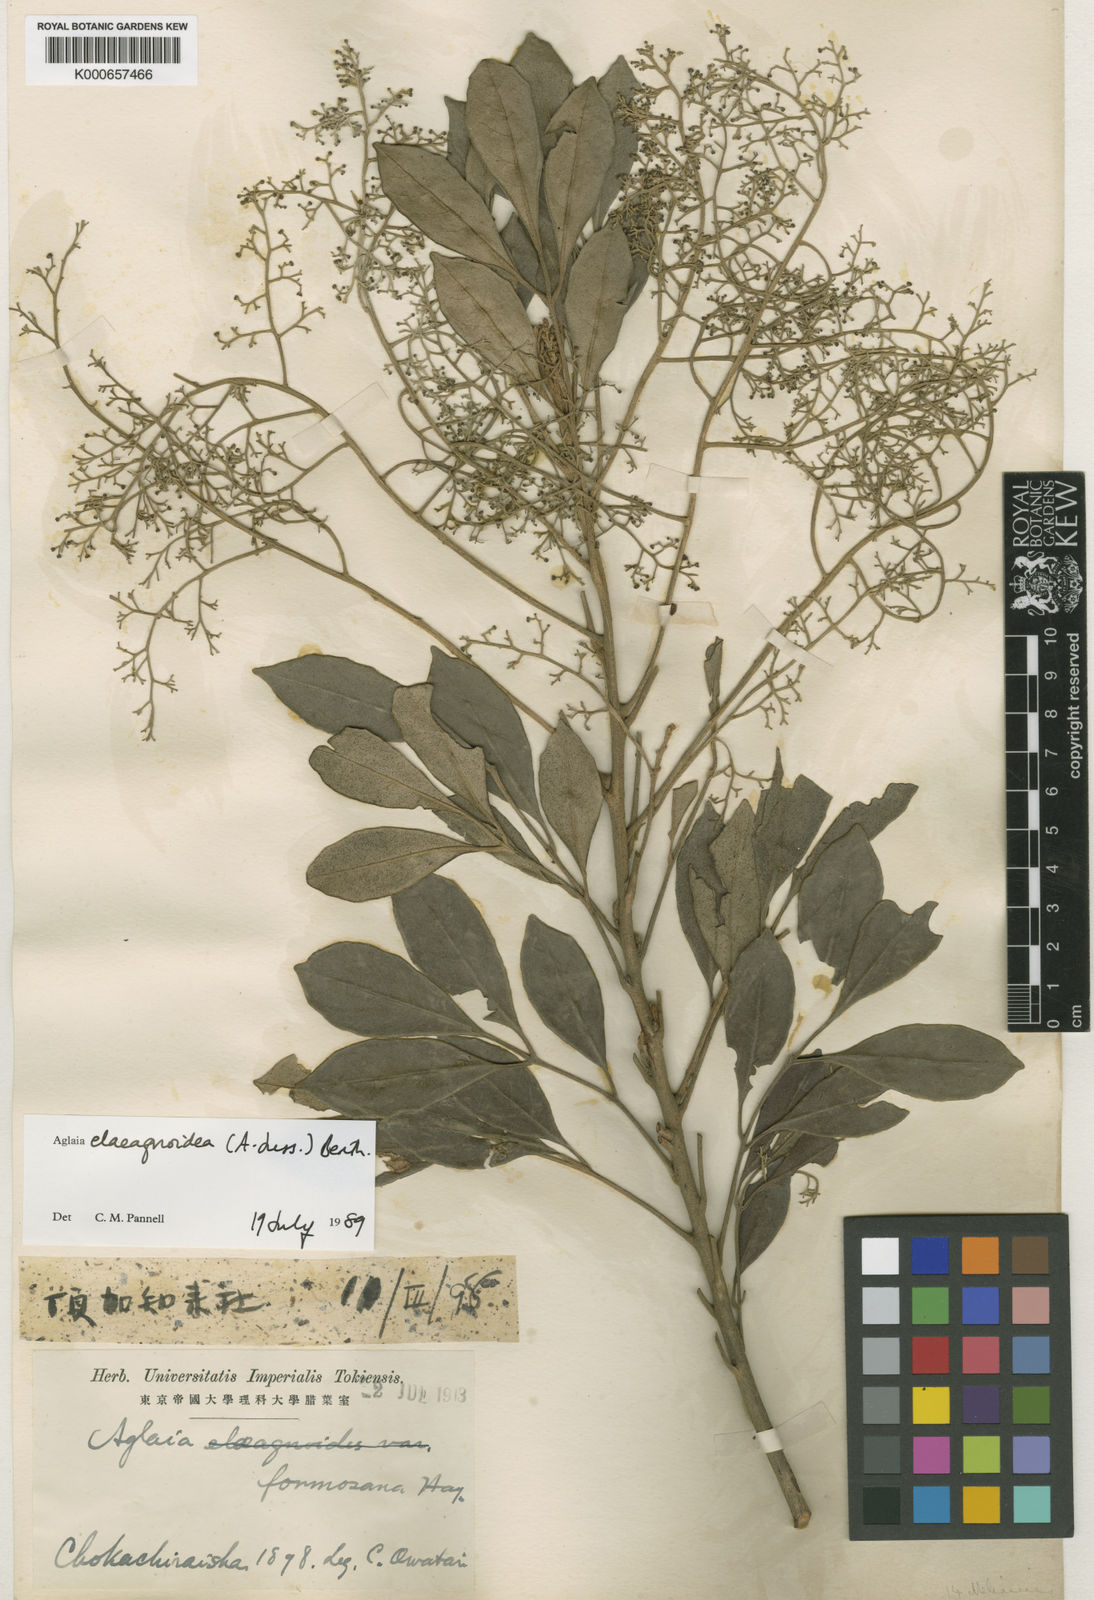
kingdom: Plantae
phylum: Tracheophyta
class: Magnoliopsida
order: Sapindales
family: Meliaceae
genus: Aglaia
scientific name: Aglaia elaeagnoidea
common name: Droopyleaf
